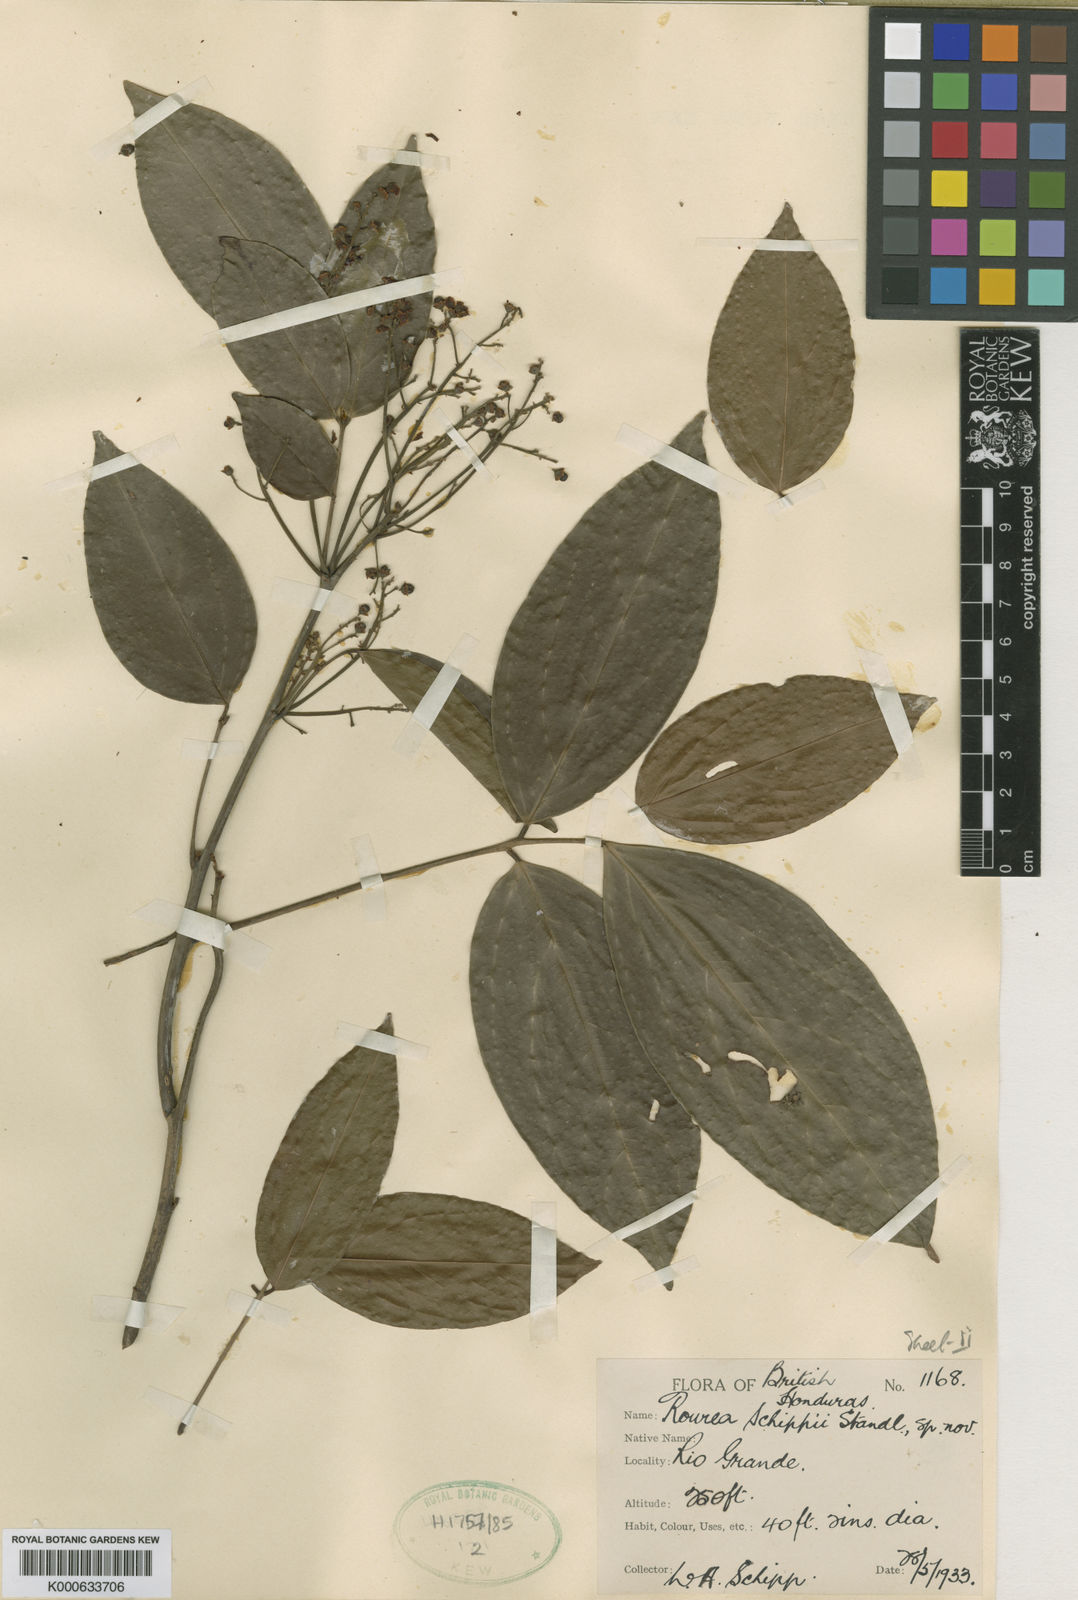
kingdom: Plantae
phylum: Tracheophyta
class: Magnoliopsida
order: Oxalidales
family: Connaraceae
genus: Rourea
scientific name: Rourea schippii
